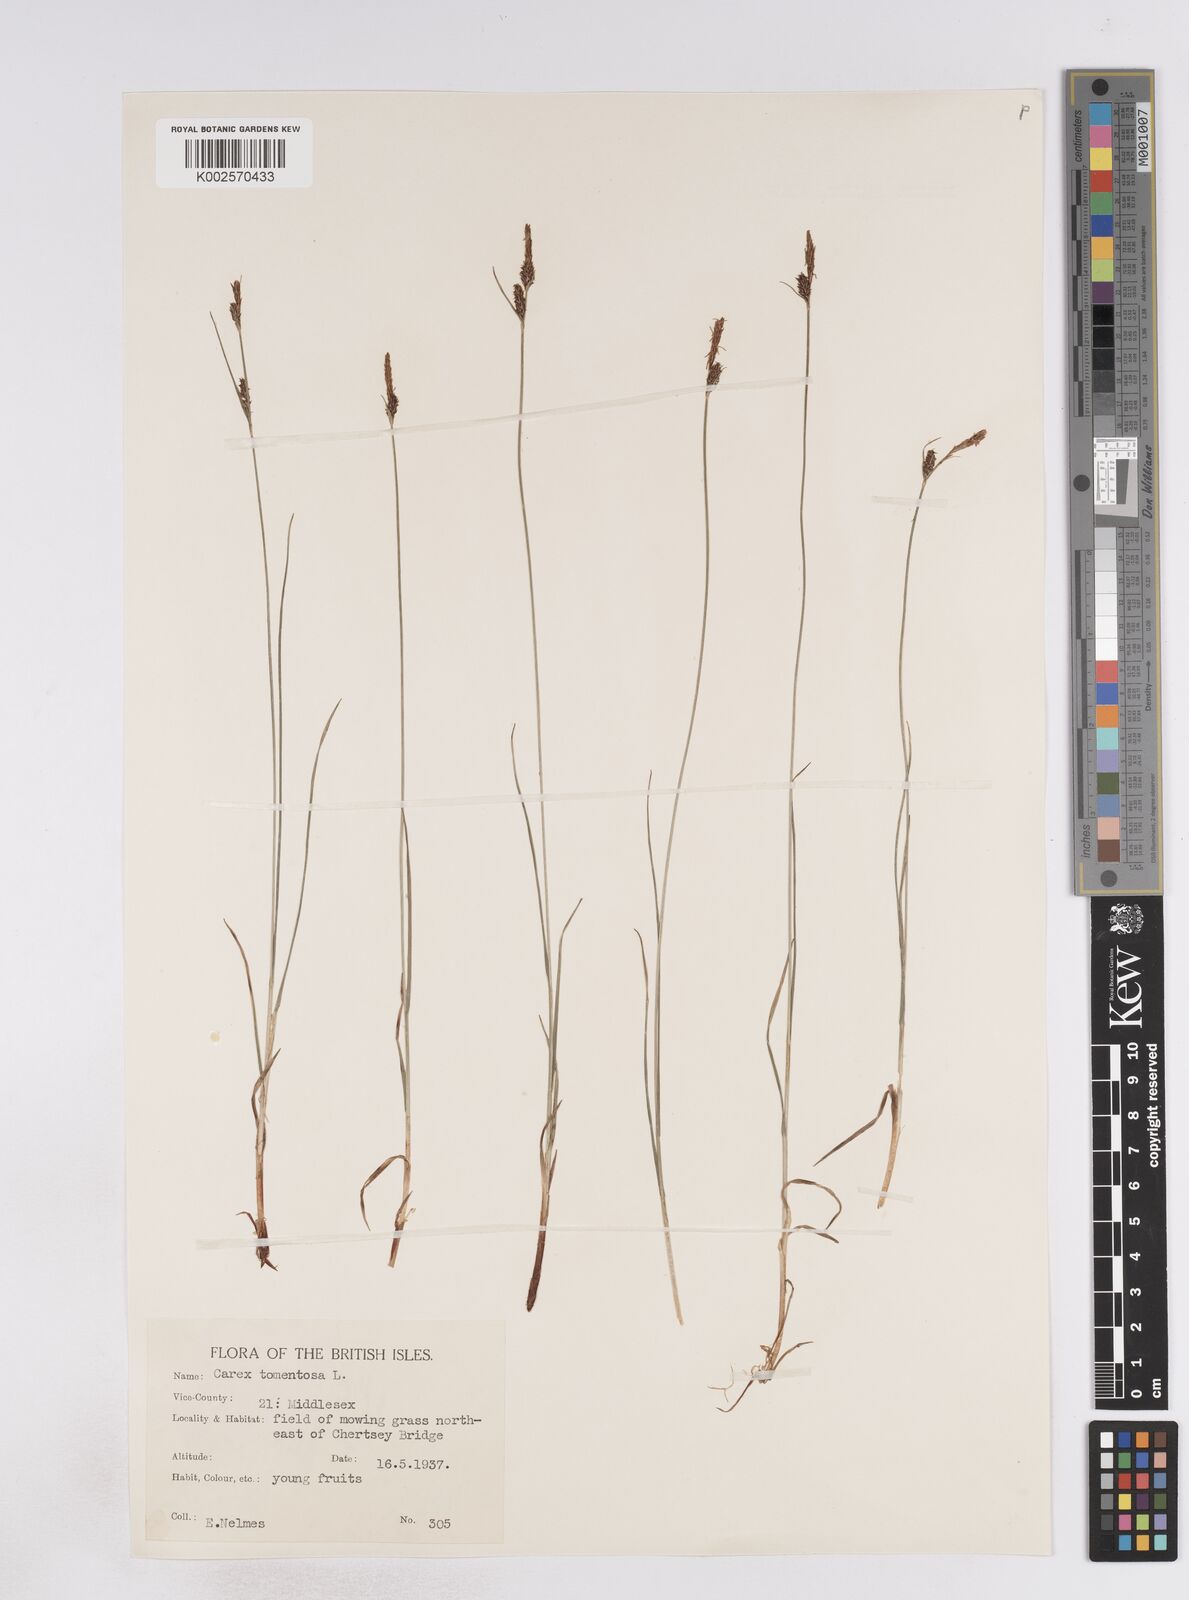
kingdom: Plantae
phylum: Tracheophyta
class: Liliopsida
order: Poales
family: Cyperaceae
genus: Carex
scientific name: Carex montana
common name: Soft-leaved sedge
